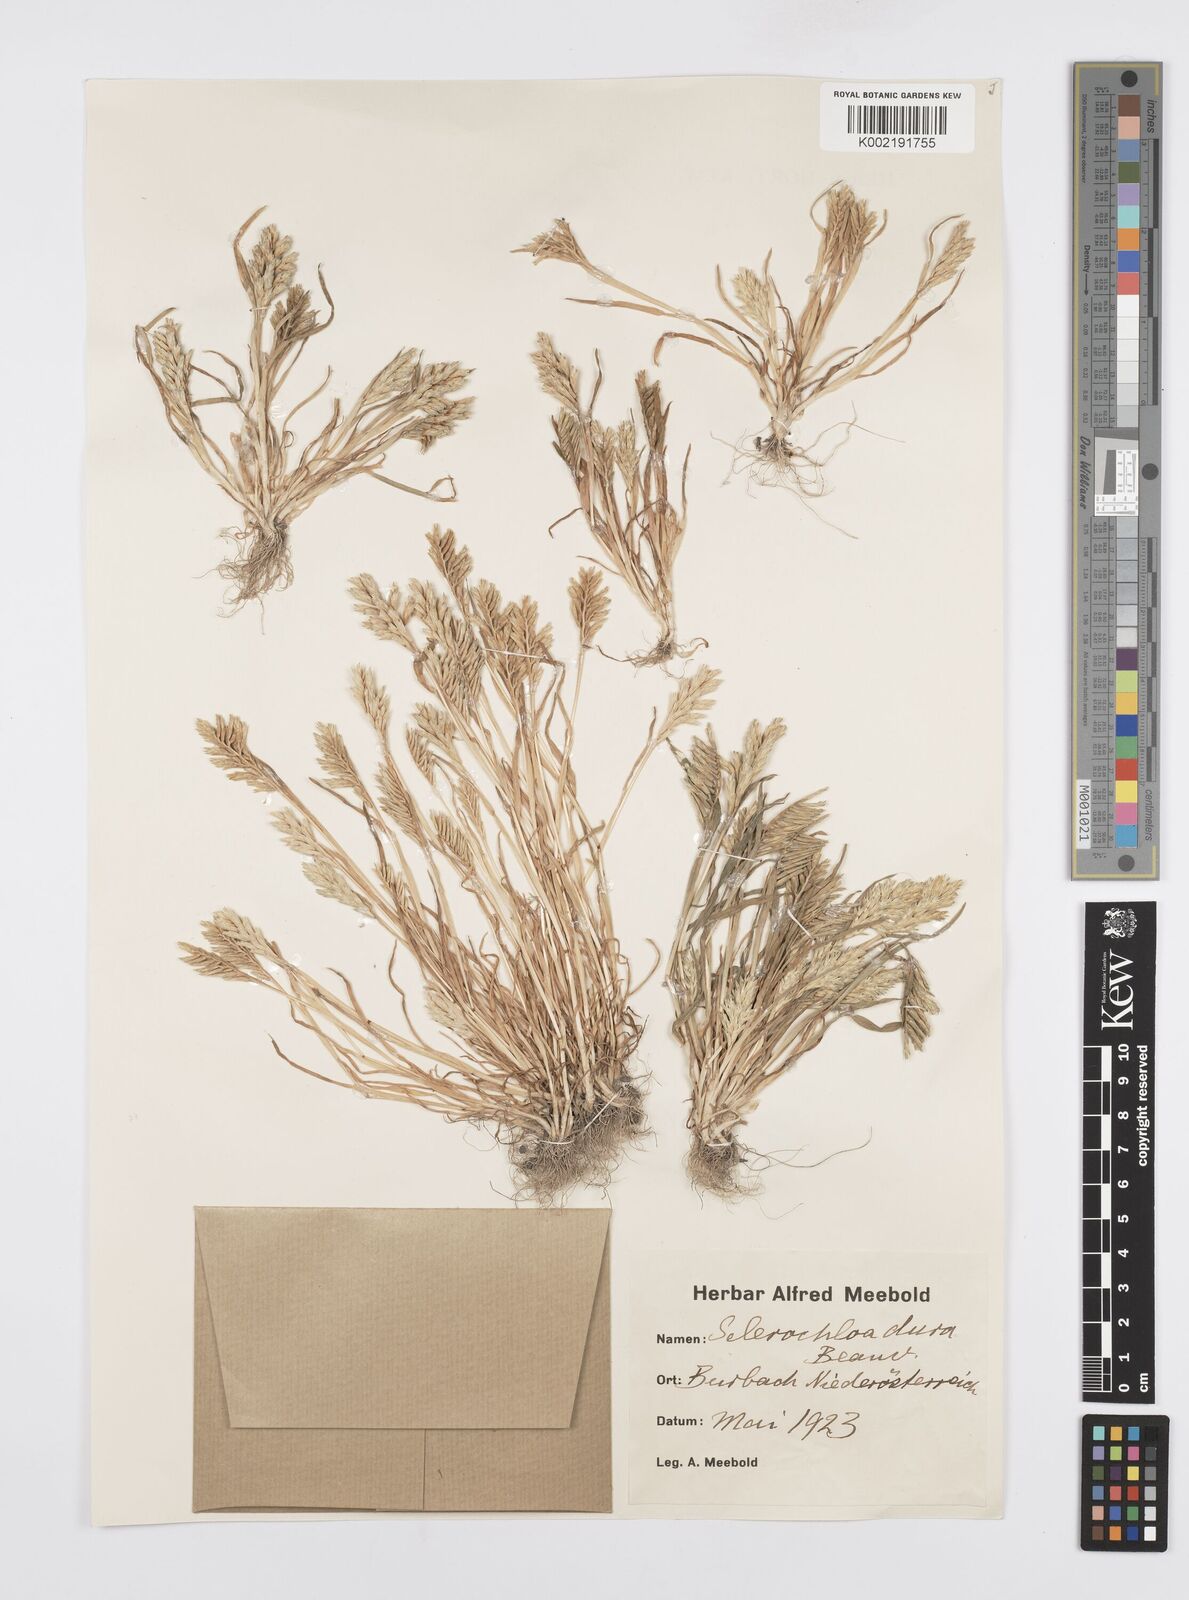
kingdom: Plantae
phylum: Tracheophyta
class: Liliopsida
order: Poales
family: Poaceae
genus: Sclerochloa
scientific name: Sclerochloa dura
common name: Common hardgrass
